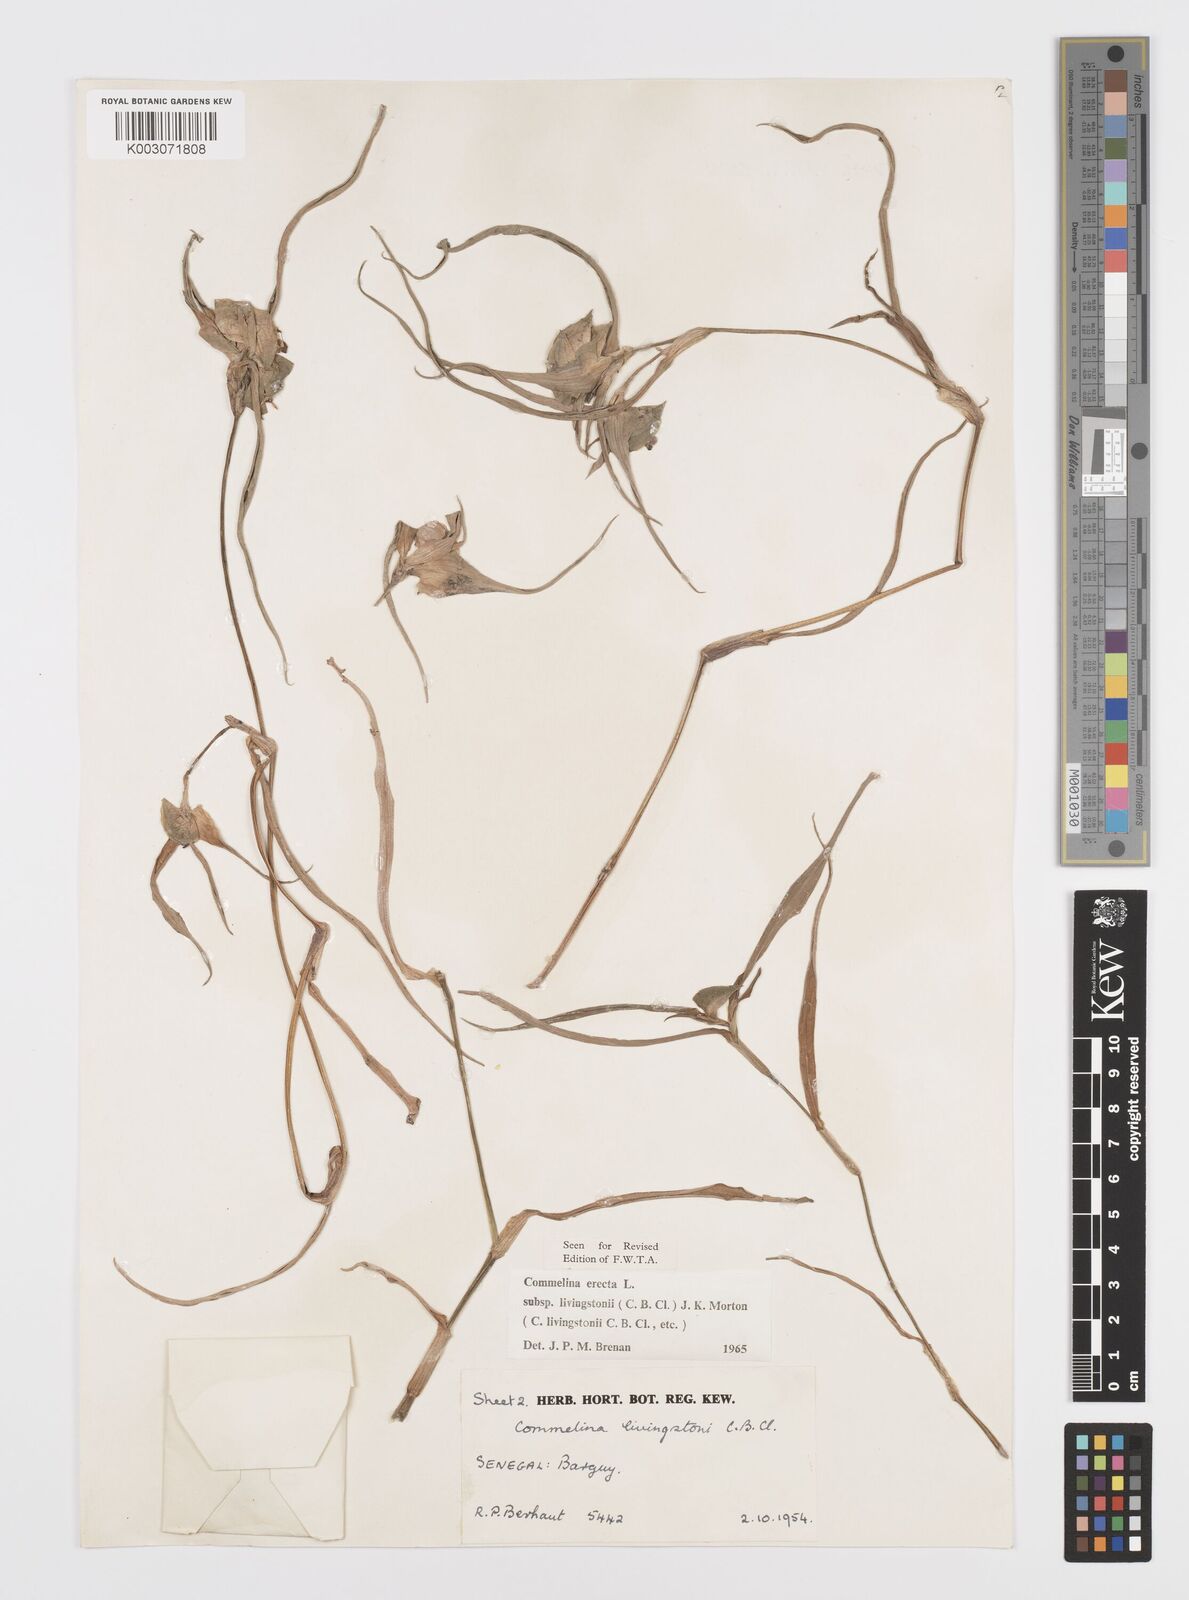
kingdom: Plantae
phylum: Tracheophyta
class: Liliopsida
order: Commelinales
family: Commelinaceae
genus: Commelina
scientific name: Commelina erecta
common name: Blousel blommetjie
